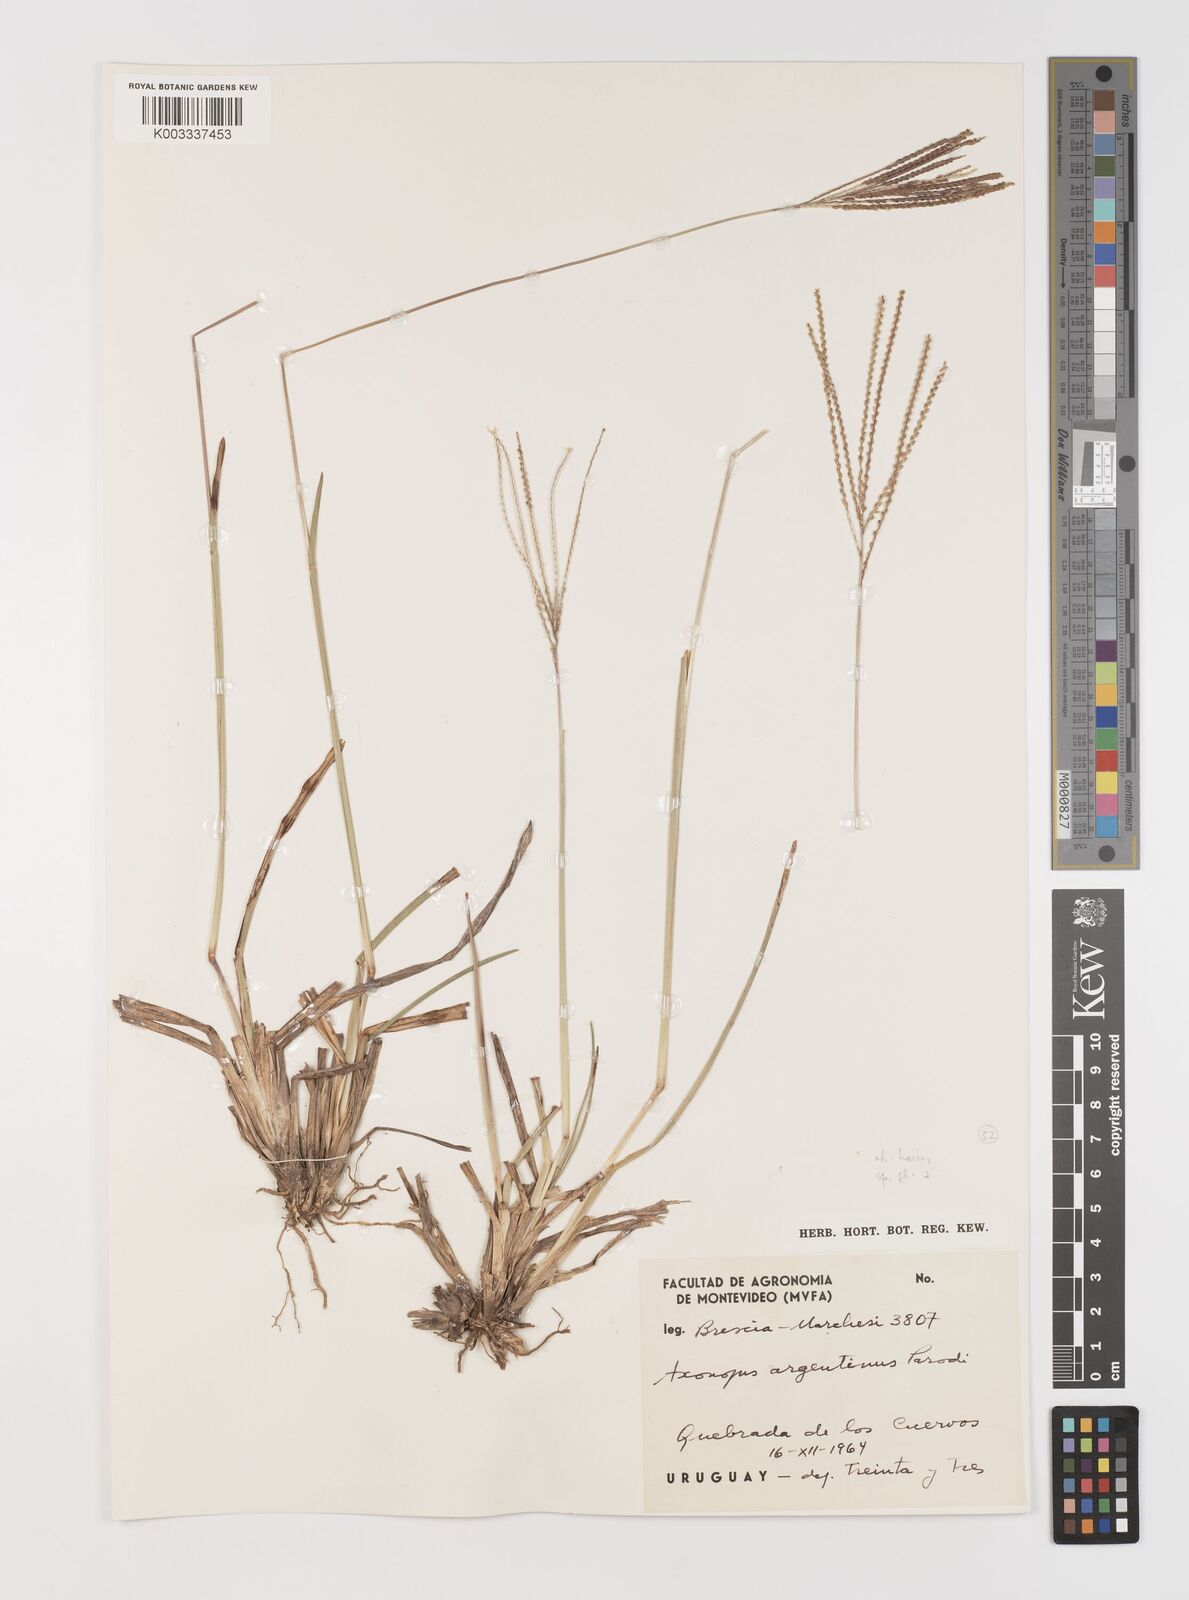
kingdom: Plantae
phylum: Tracheophyta
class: Liliopsida
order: Poales
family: Poaceae
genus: Axonopus
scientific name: Axonopus argentinus
